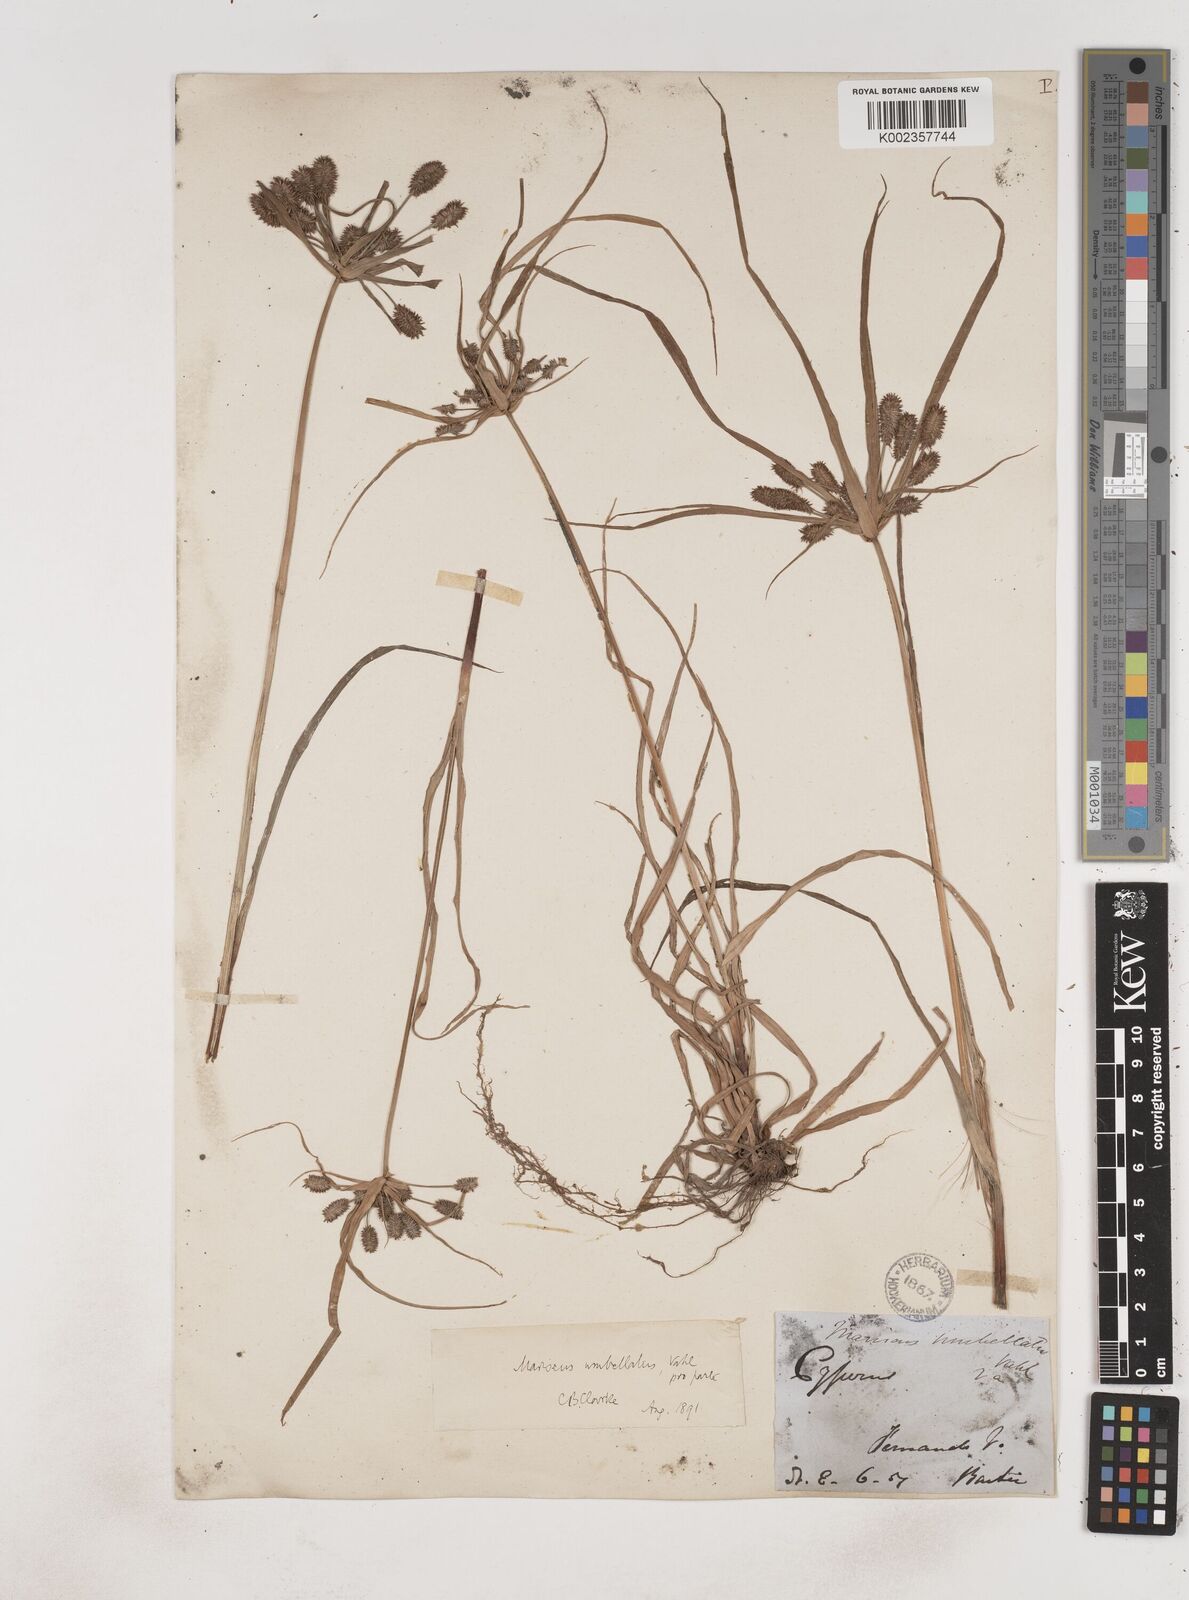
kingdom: Plantae
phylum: Tracheophyta
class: Liliopsida
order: Poales
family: Cyperaceae
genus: Cyperus
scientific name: Cyperus sublimis
